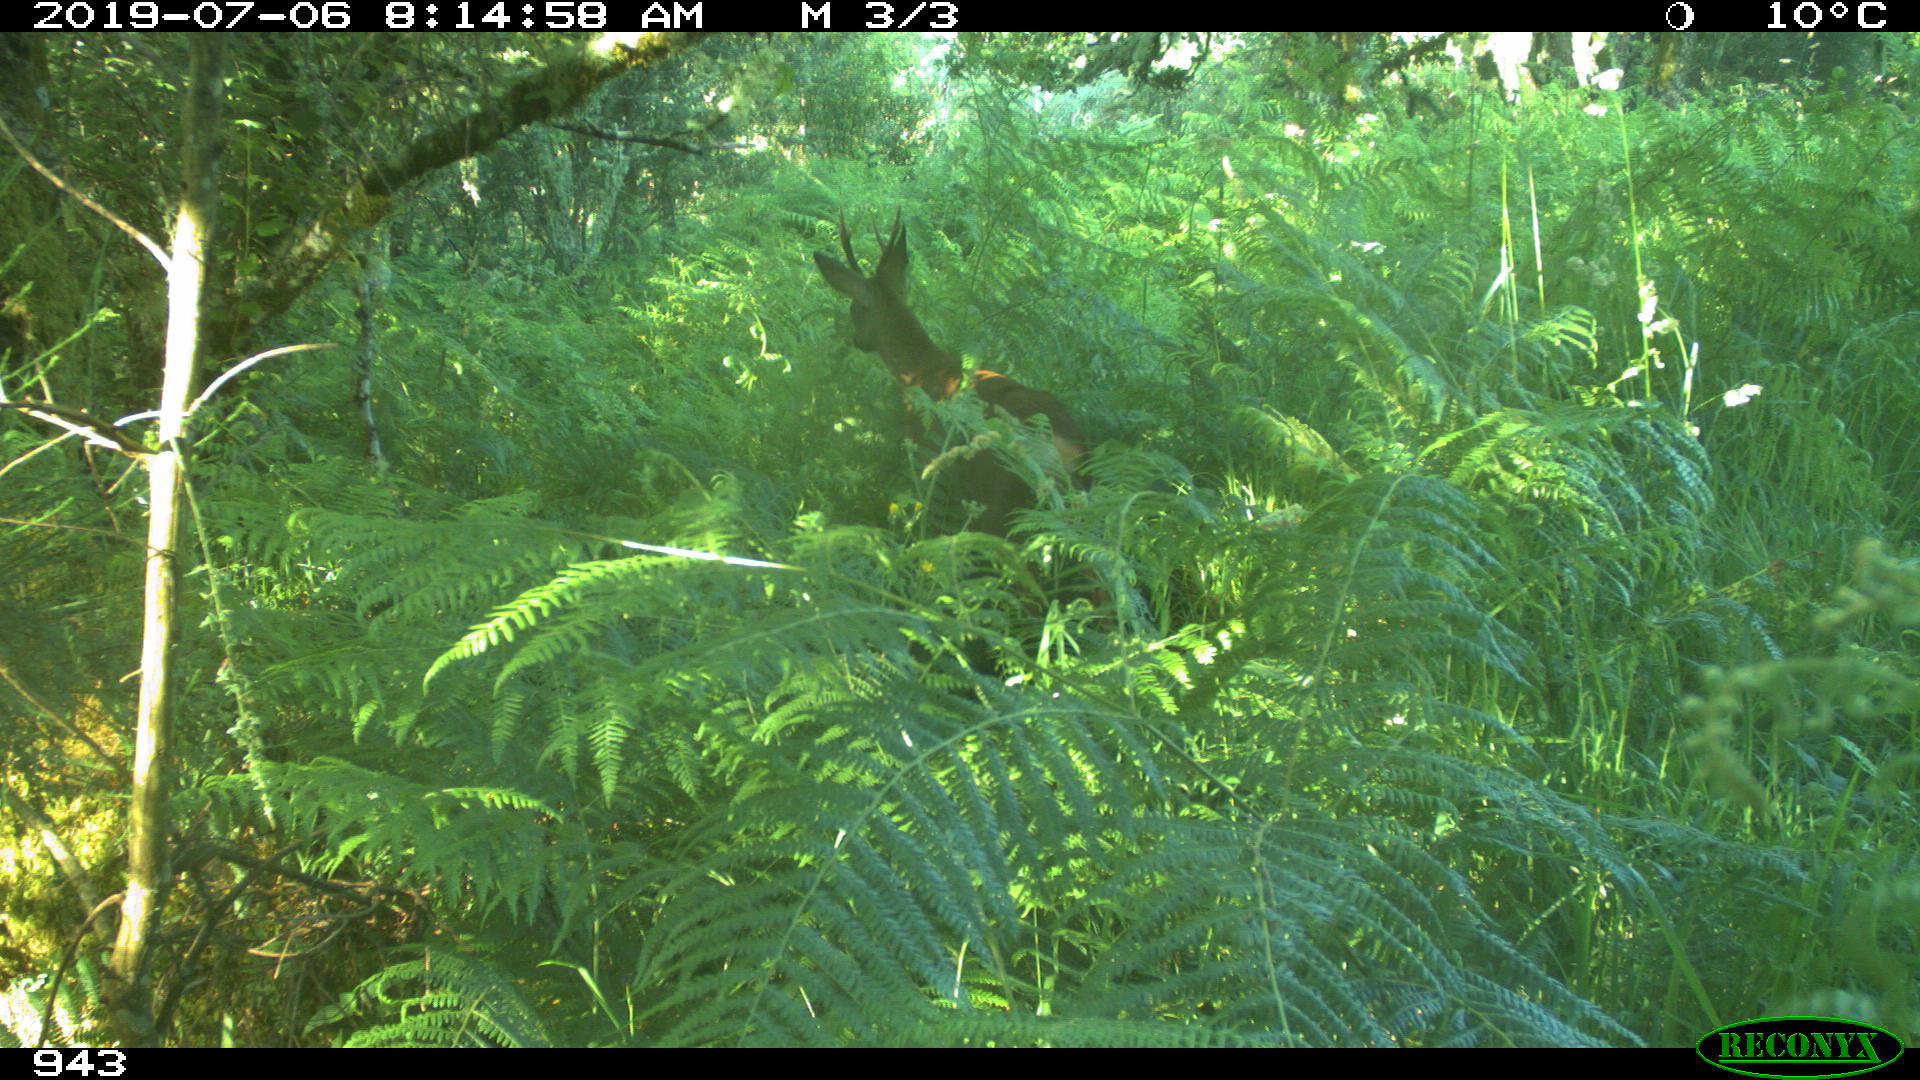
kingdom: Animalia
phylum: Chordata
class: Mammalia
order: Artiodactyla
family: Cervidae
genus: Capreolus
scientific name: Capreolus capreolus
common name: Western roe deer
